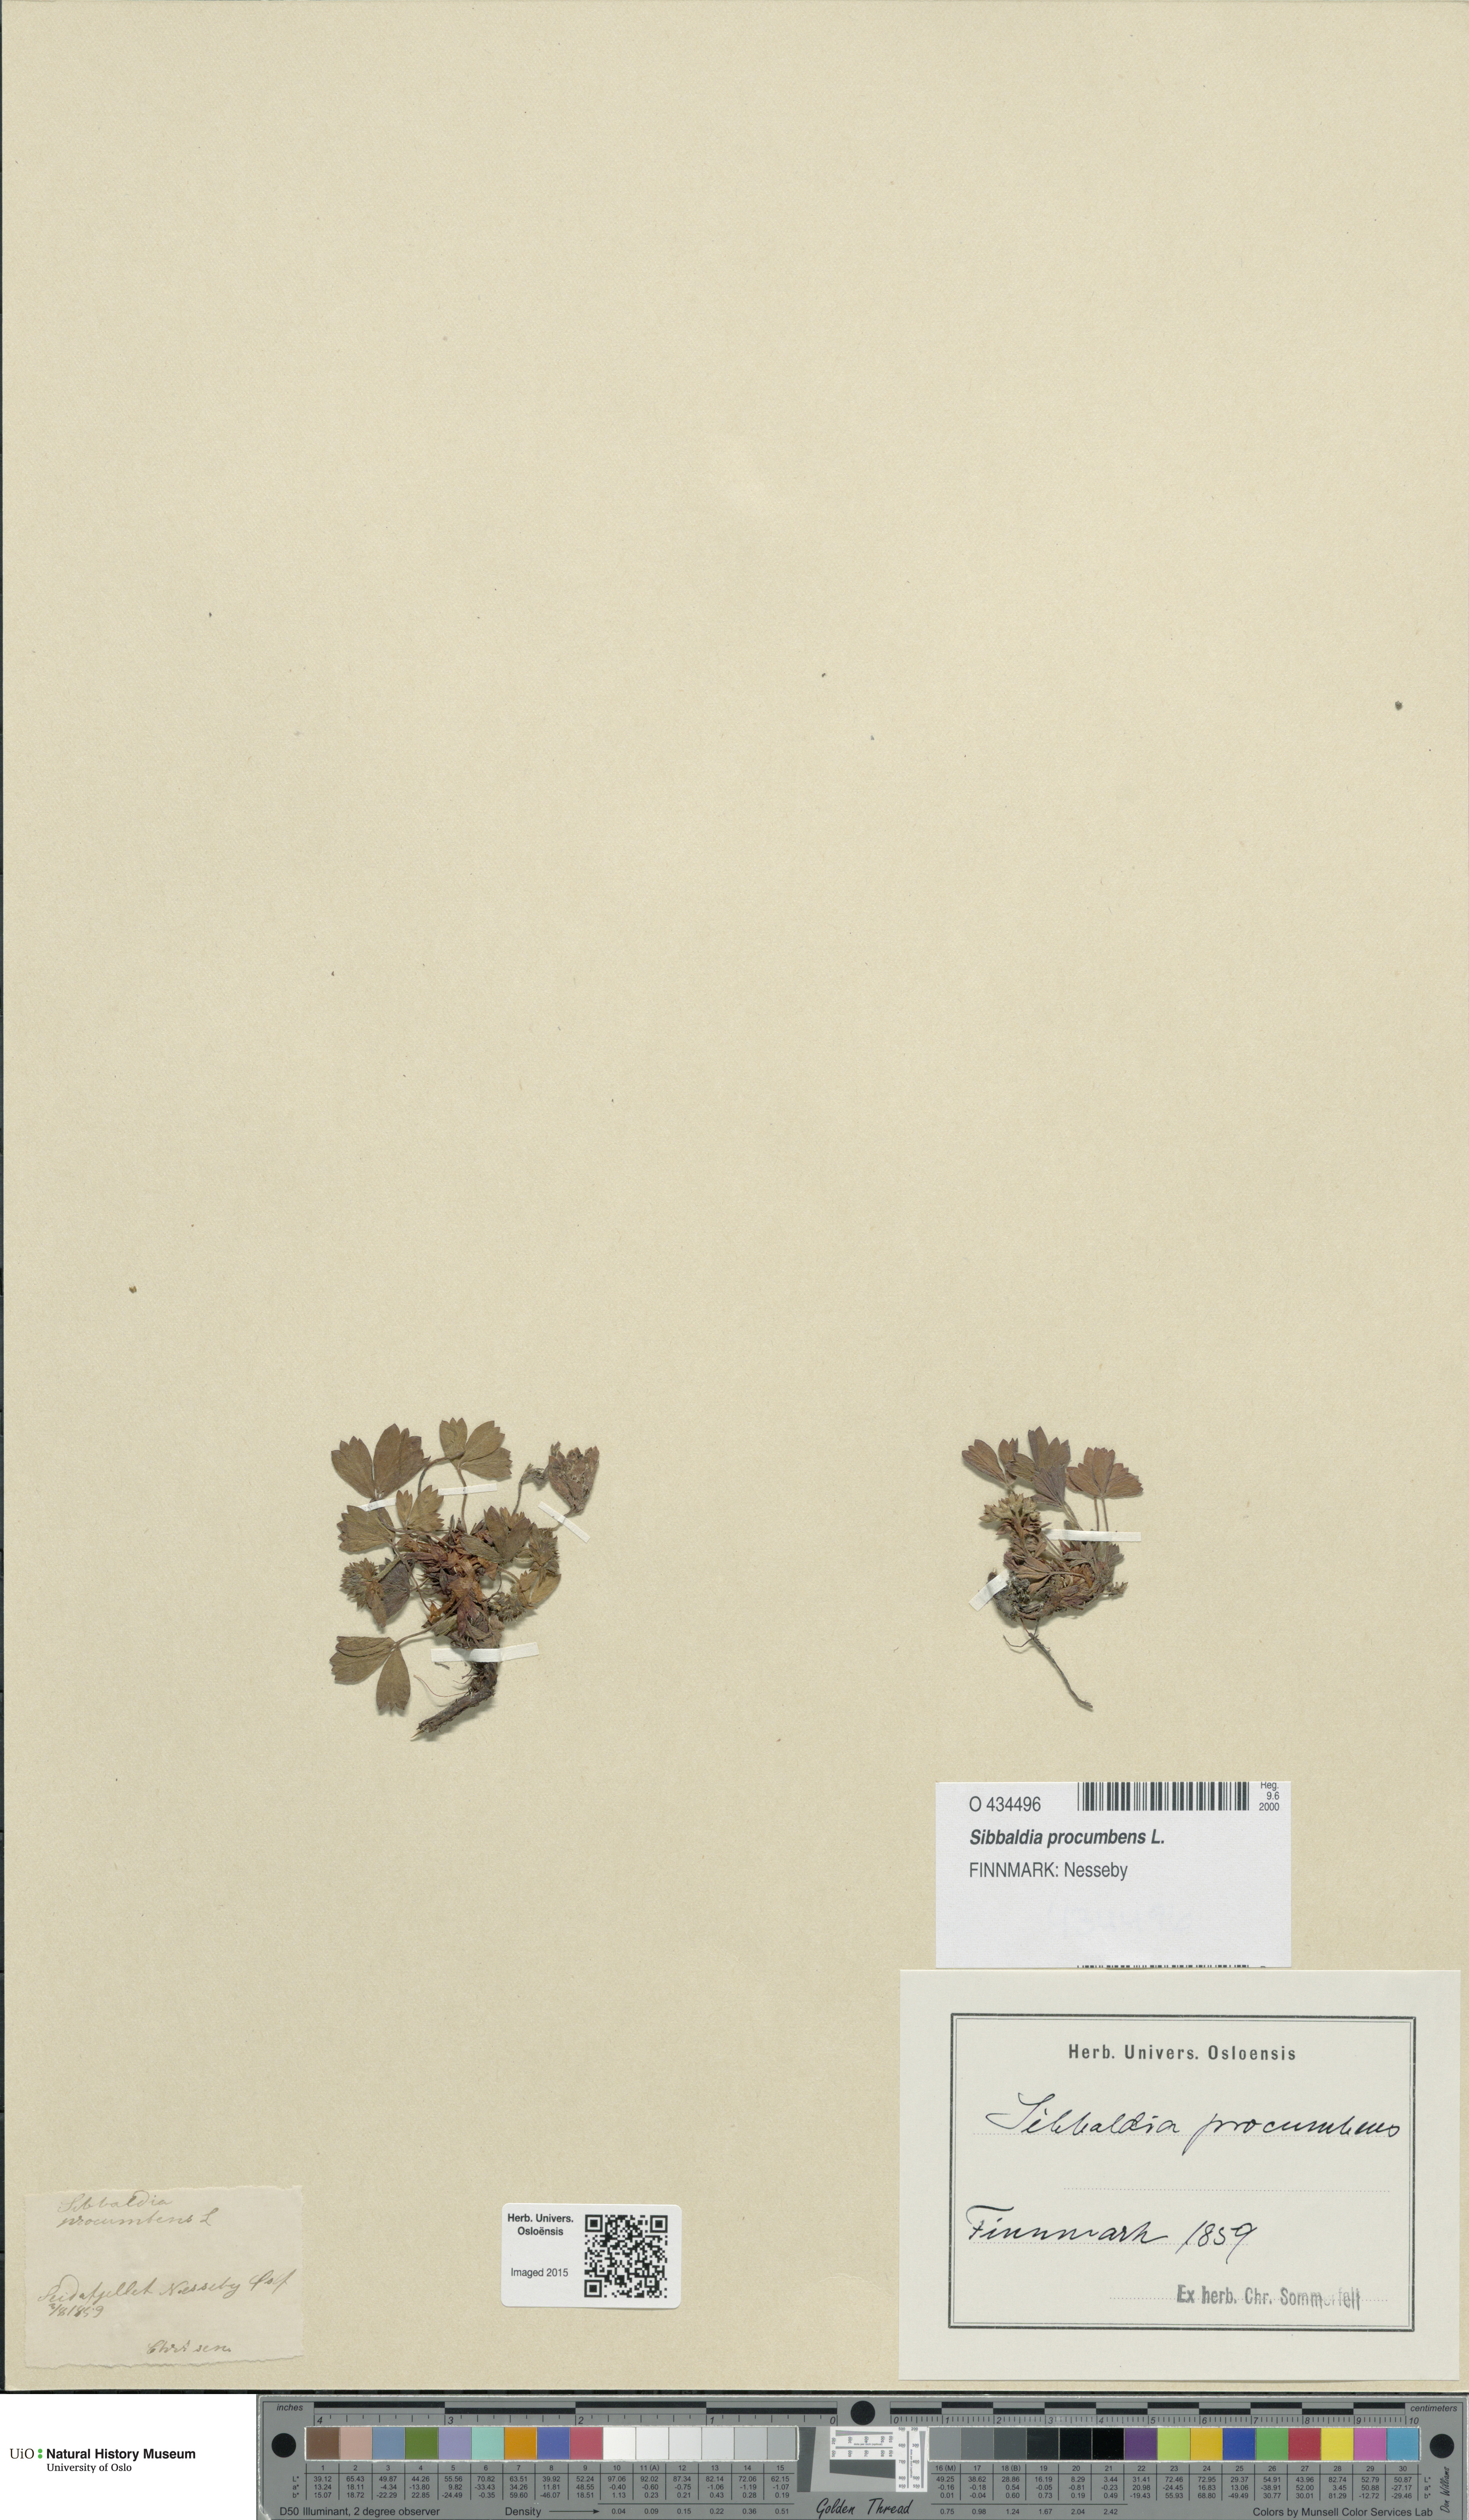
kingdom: Plantae
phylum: Tracheophyta
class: Magnoliopsida
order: Rosales
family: Rosaceae
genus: Sibbaldia
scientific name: Sibbaldia procumbens
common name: Creeping sibbaldia
